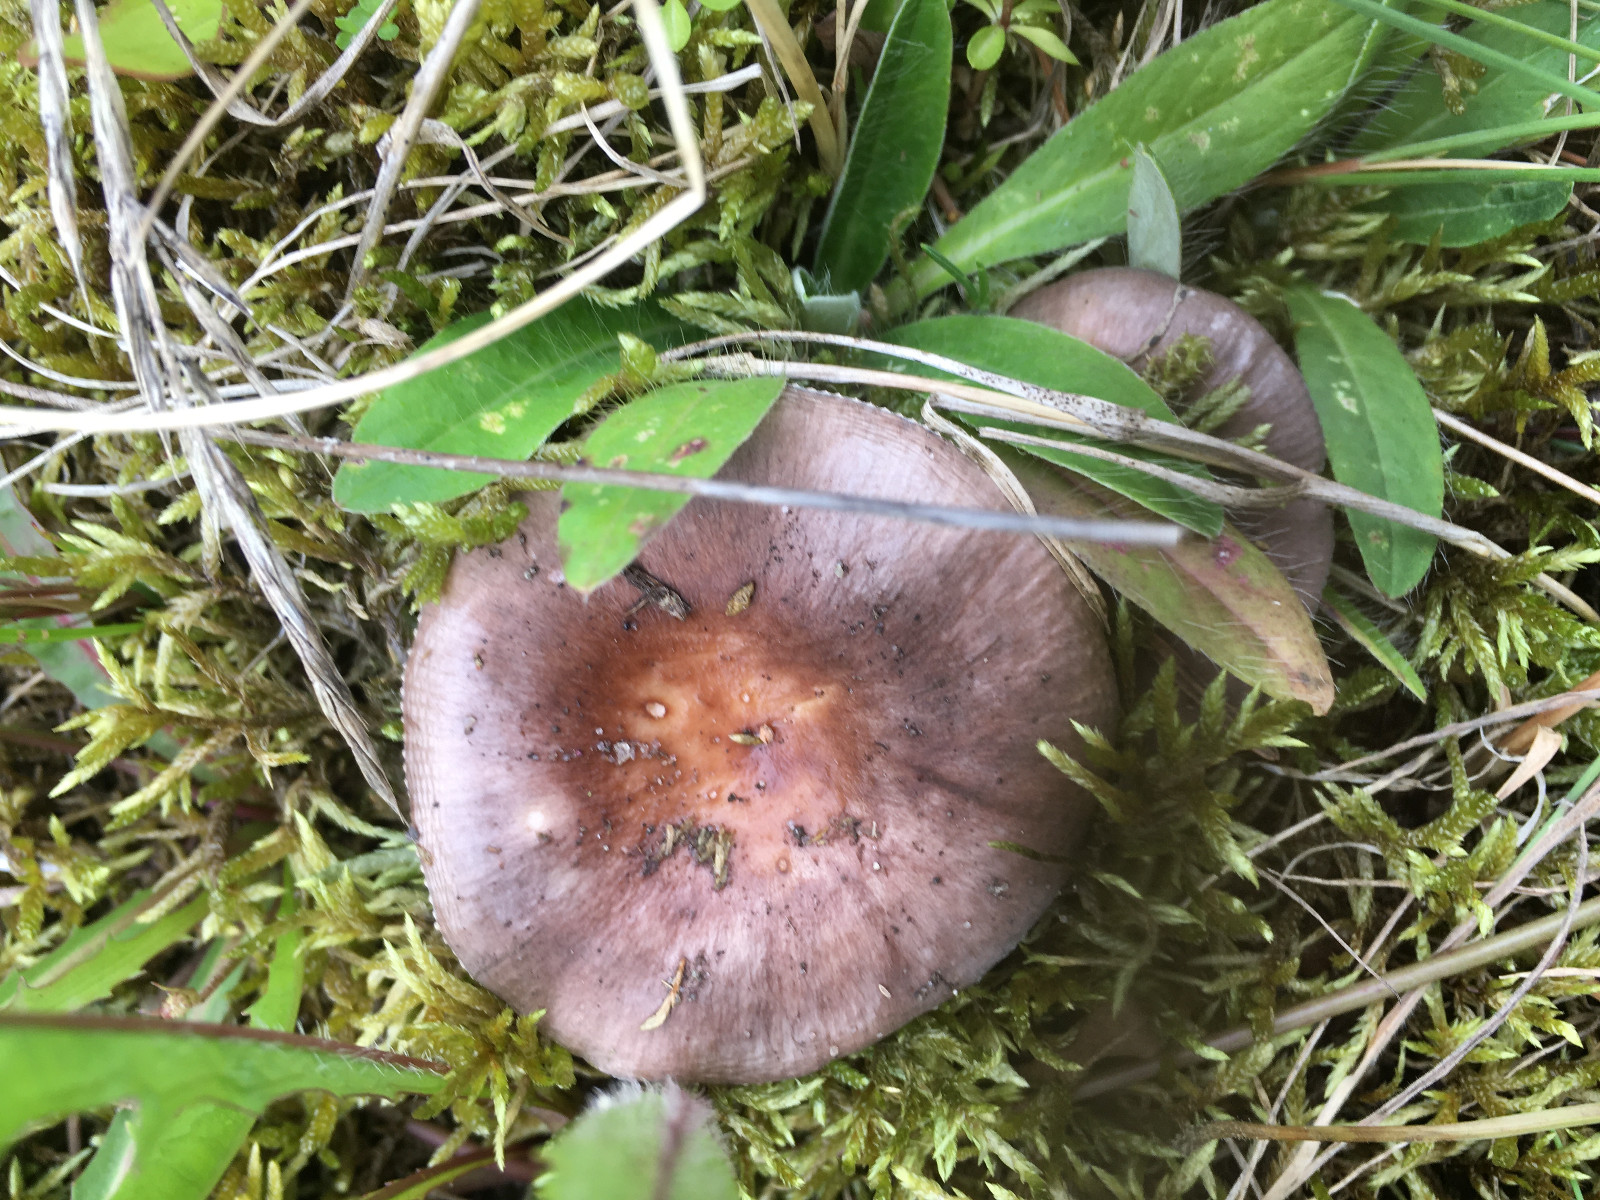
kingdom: Fungi
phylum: Basidiomycota
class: Agaricomycetes
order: Russulales
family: Russulaceae
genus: Russula
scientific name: Russula
